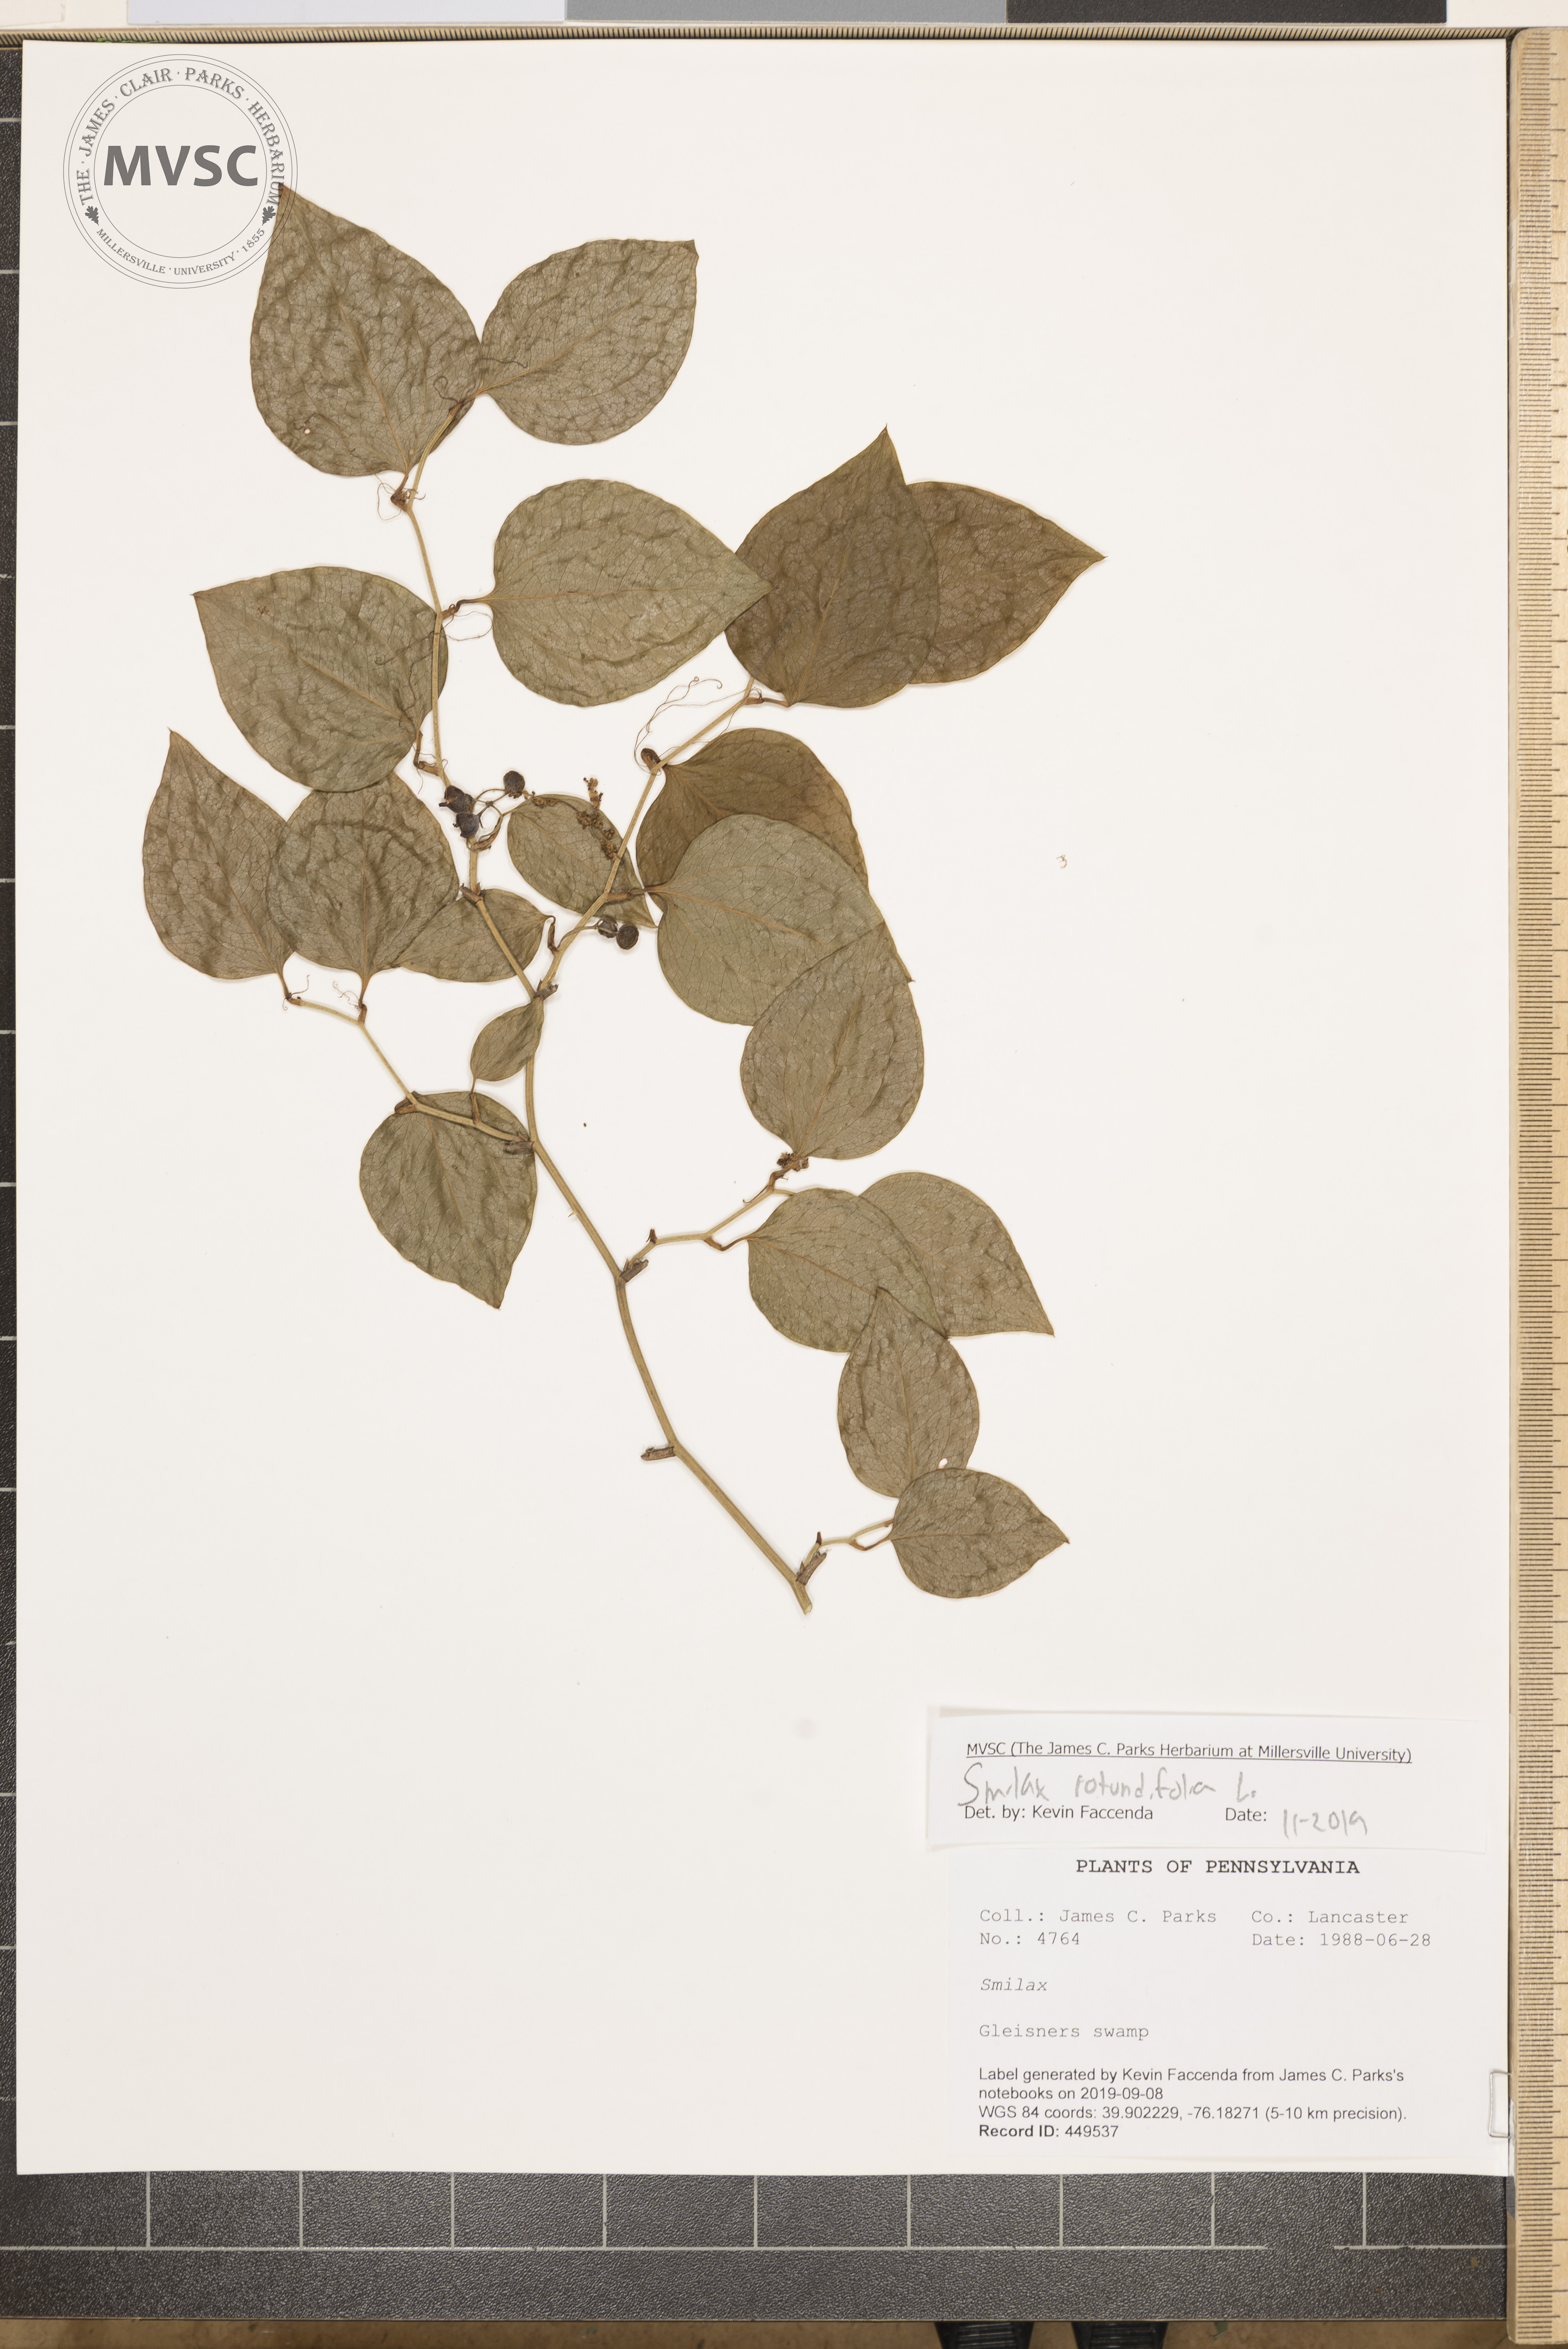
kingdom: Plantae
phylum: Tracheophyta
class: Liliopsida
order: Liliales
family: Smilacaceae
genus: Smilax
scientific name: Smilax rotundifolia
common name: Bullbriar
